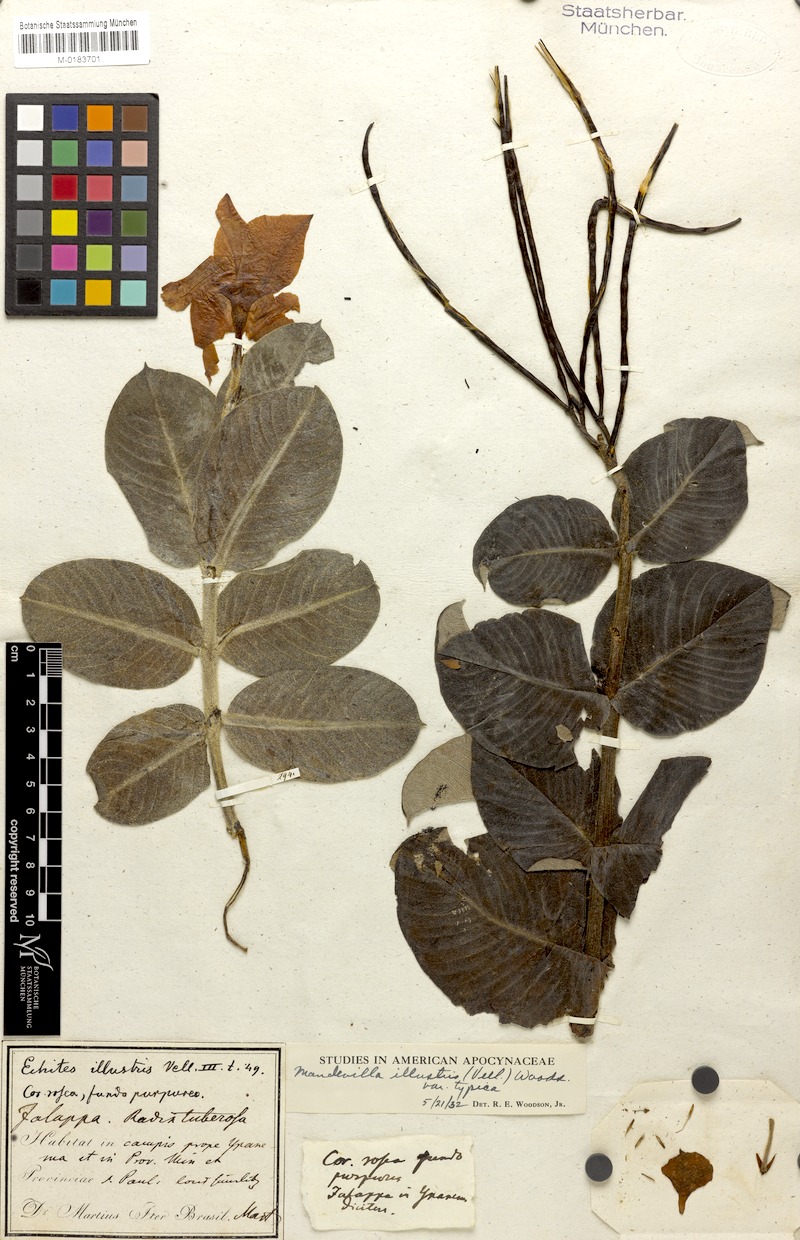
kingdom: Plantae
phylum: Tracheophyta
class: Magnoliopsida
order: Gentianales
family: Apocynaceae
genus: Mandevilla
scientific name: Mandevilla illustris
